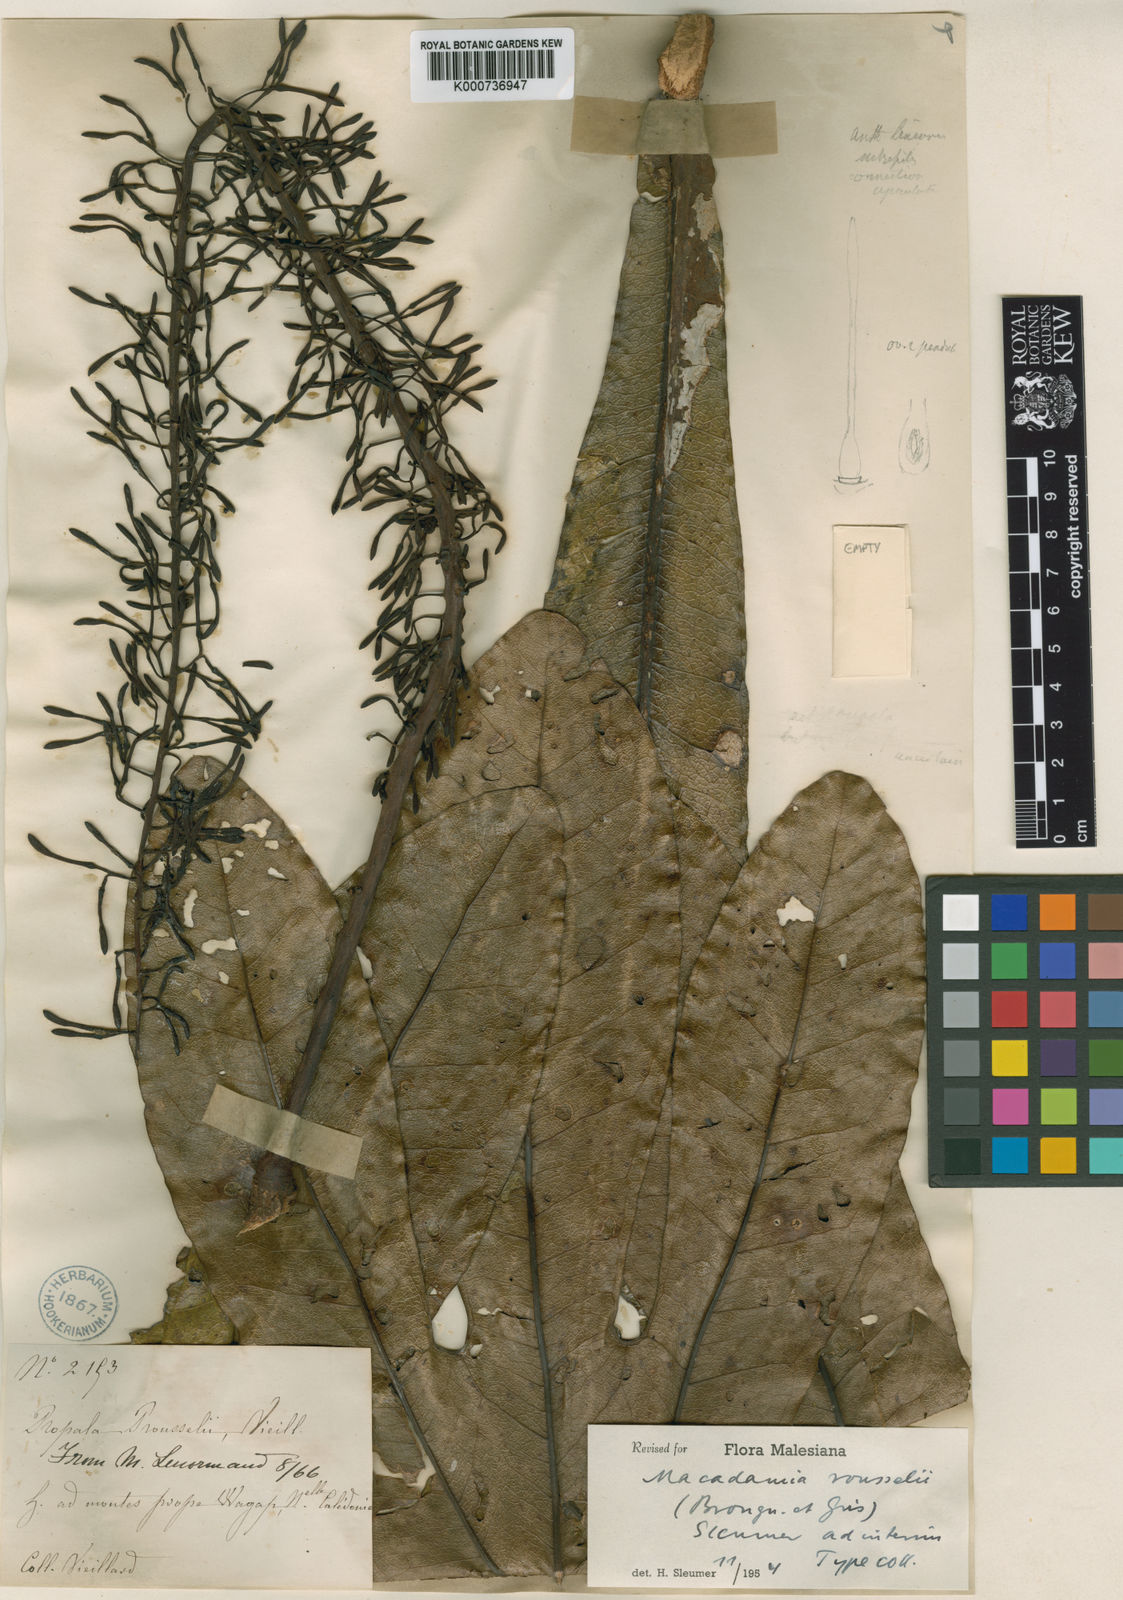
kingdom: Plantae
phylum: Tracheophyta
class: Magnoliopsida
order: Proteales
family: Proteaceae
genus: Virotia
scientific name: Virotia rousselii
